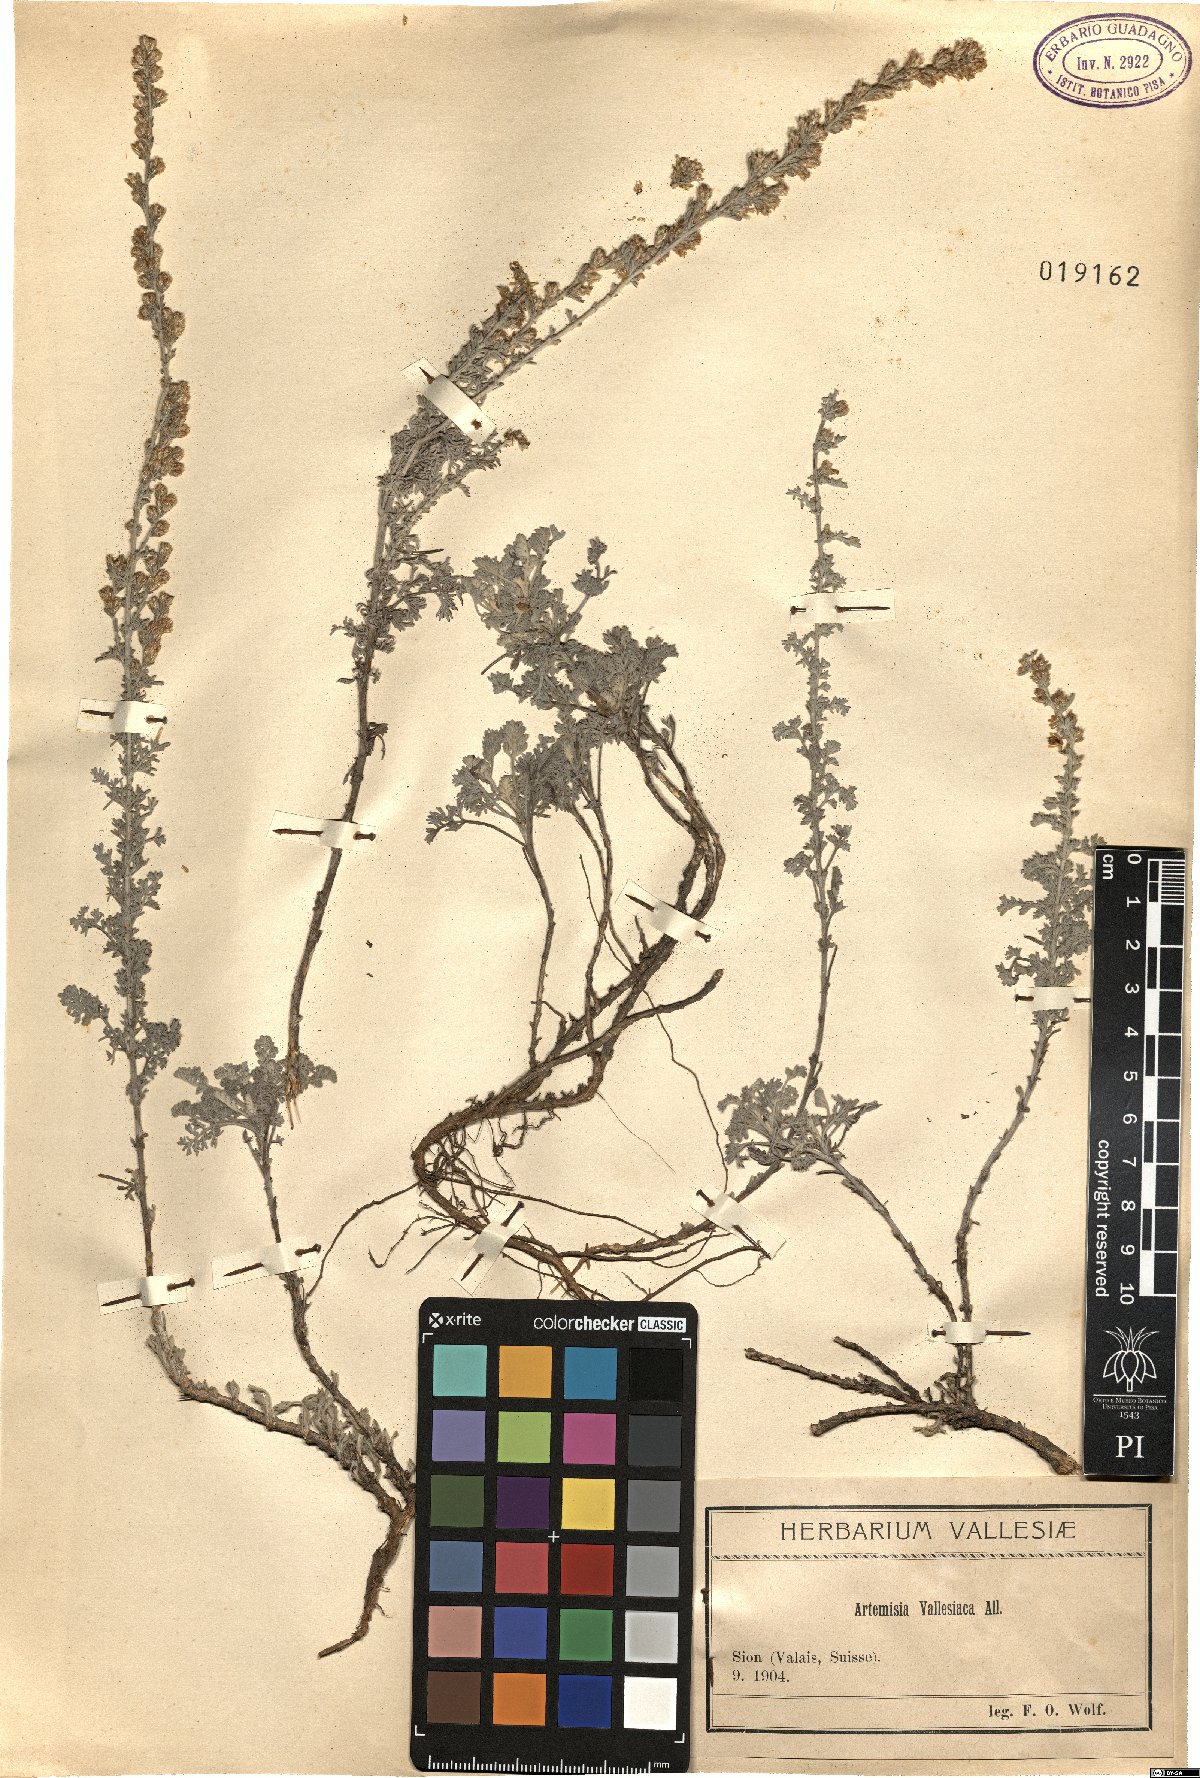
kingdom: Plantae
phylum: Tracheophyta
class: Magnoliopsida
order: Asterales
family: Asteraceae
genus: Artemisia
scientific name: Artemisia vallesiaca
